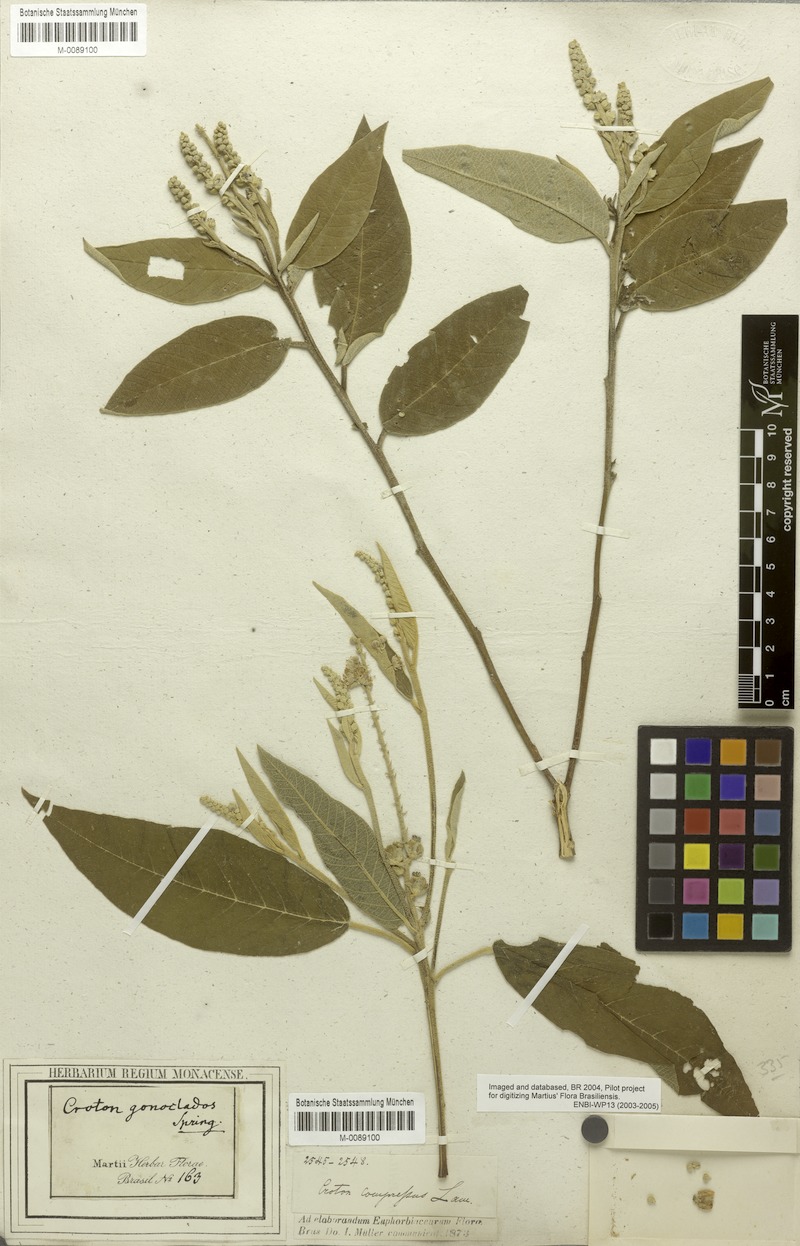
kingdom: Plantae
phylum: Tracheophyta
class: Magnoliopsida
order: Malpighiales
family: Euphorbiaceae
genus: Croton
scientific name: Croton compressus
